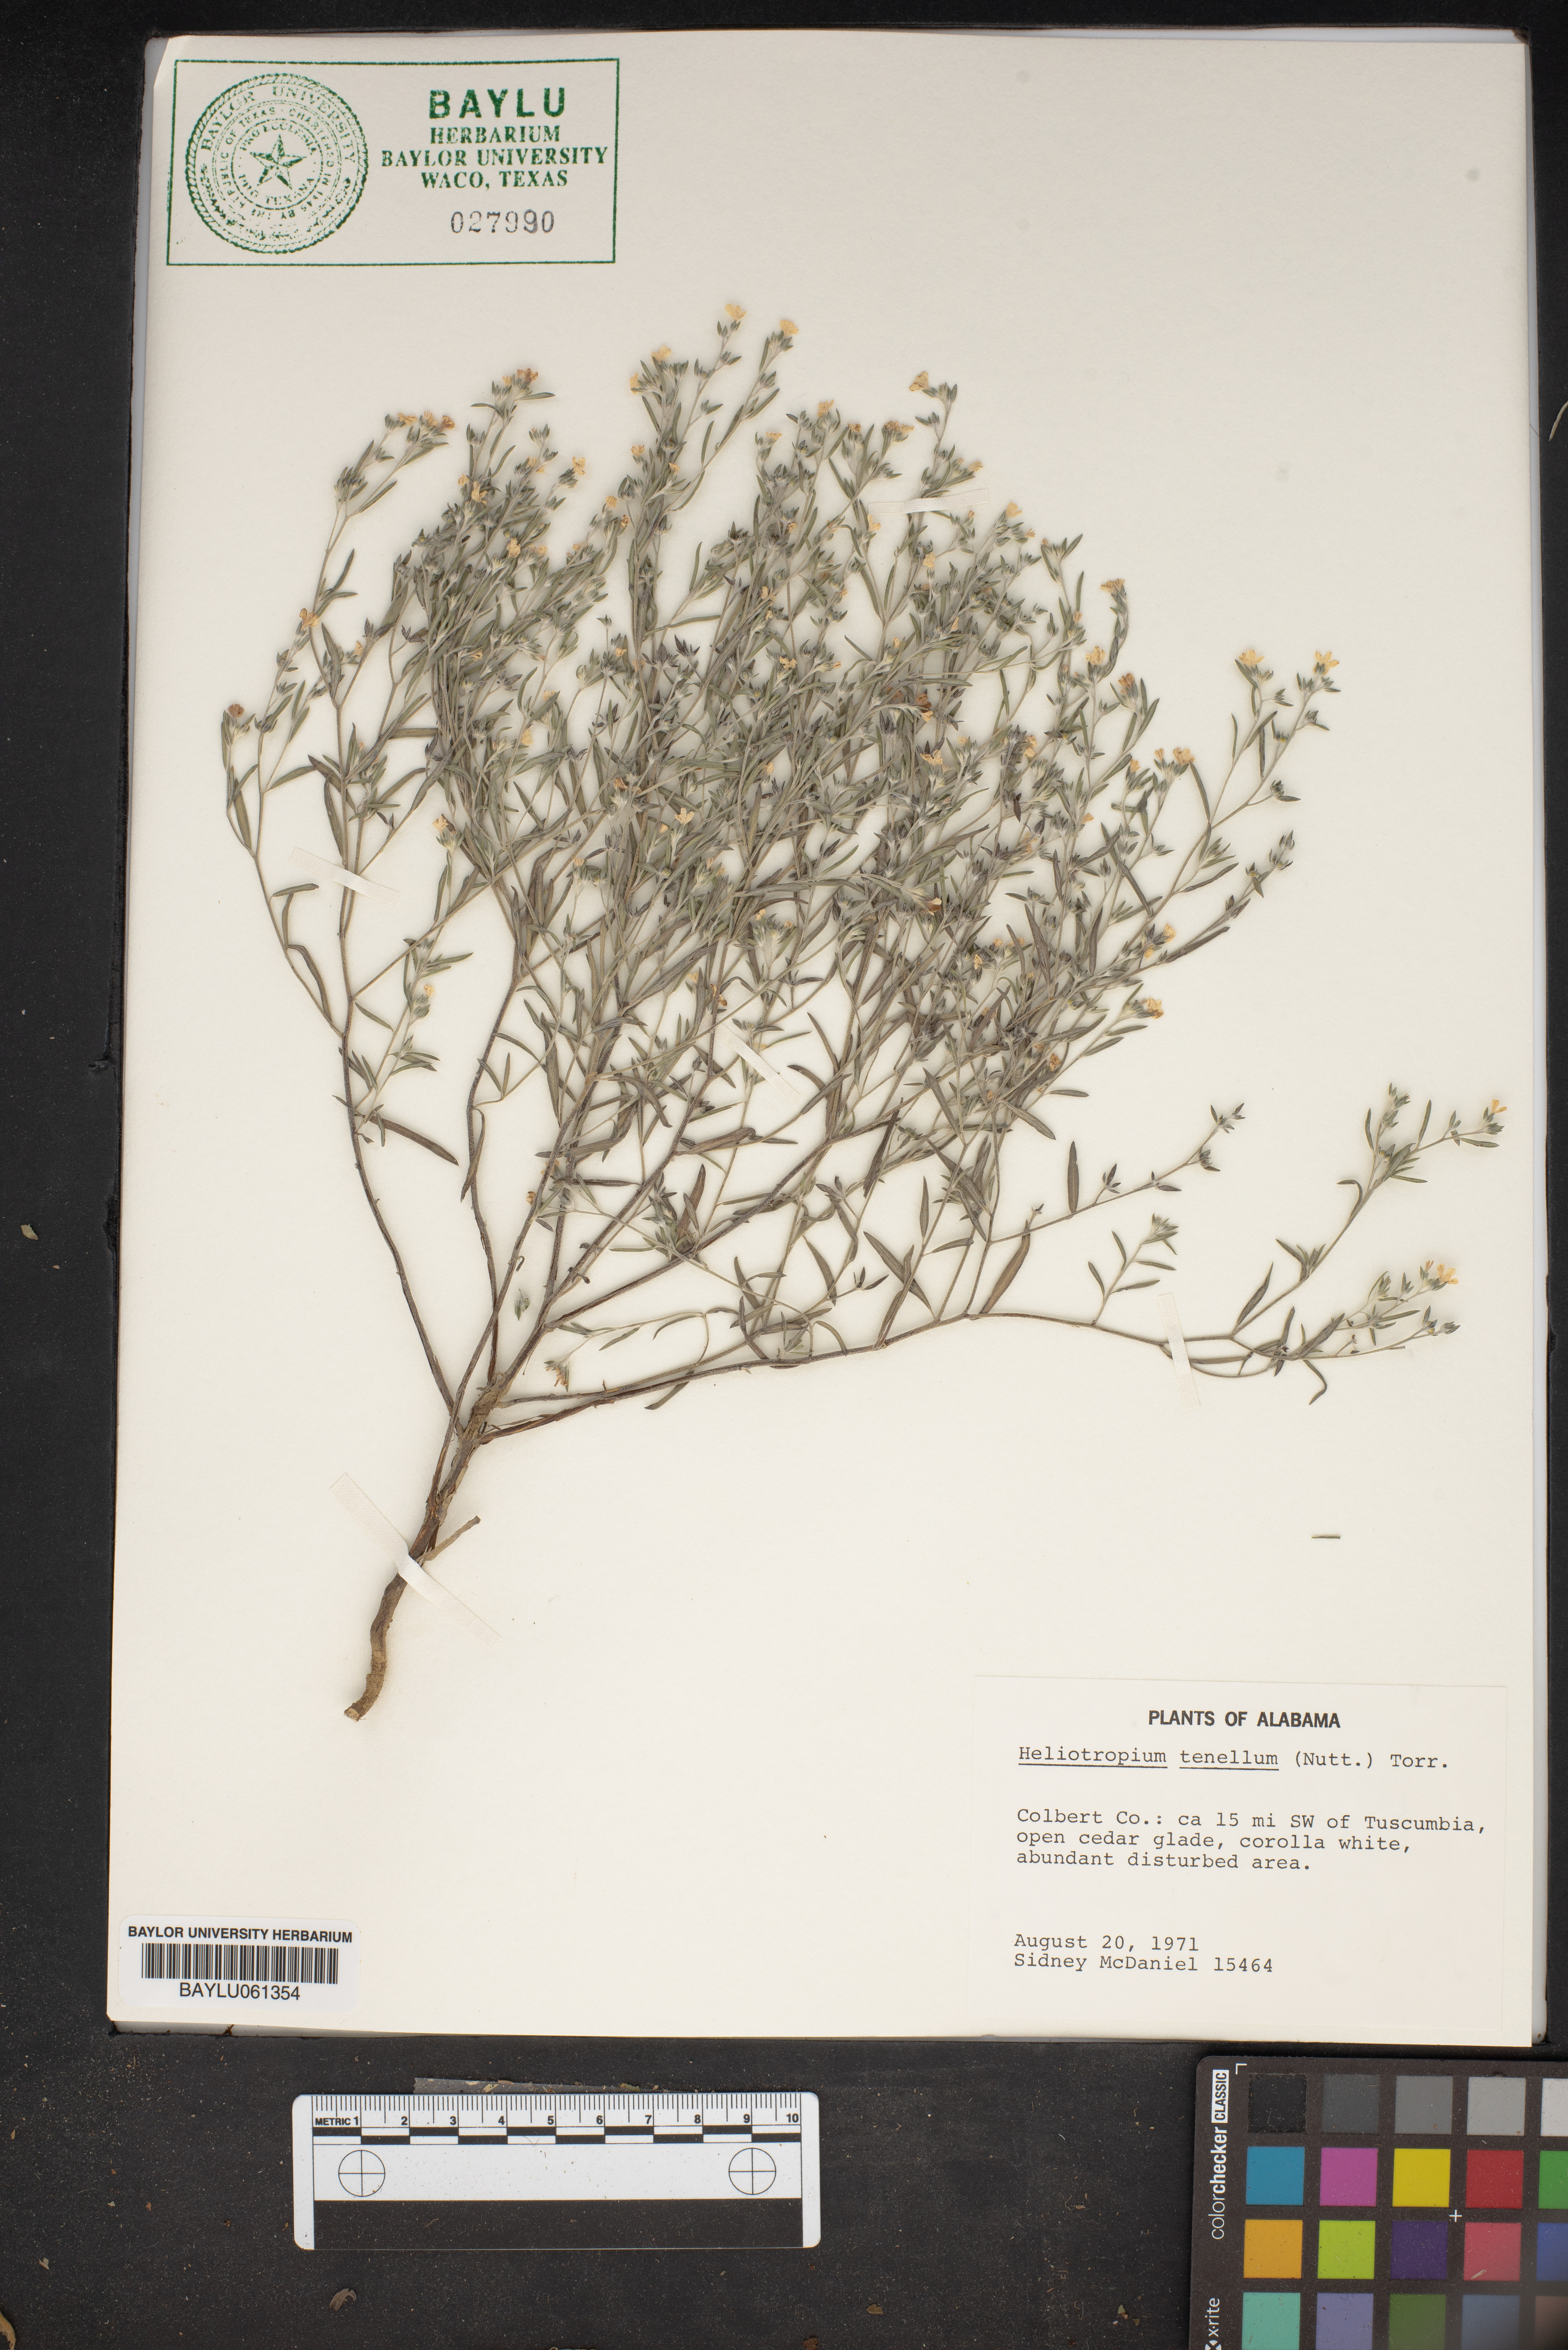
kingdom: Plantae
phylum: Tracheophyta
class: Magnoliopsida
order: Boraginales
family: Heliotropiaceae
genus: Euploca
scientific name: Euploca tenella
